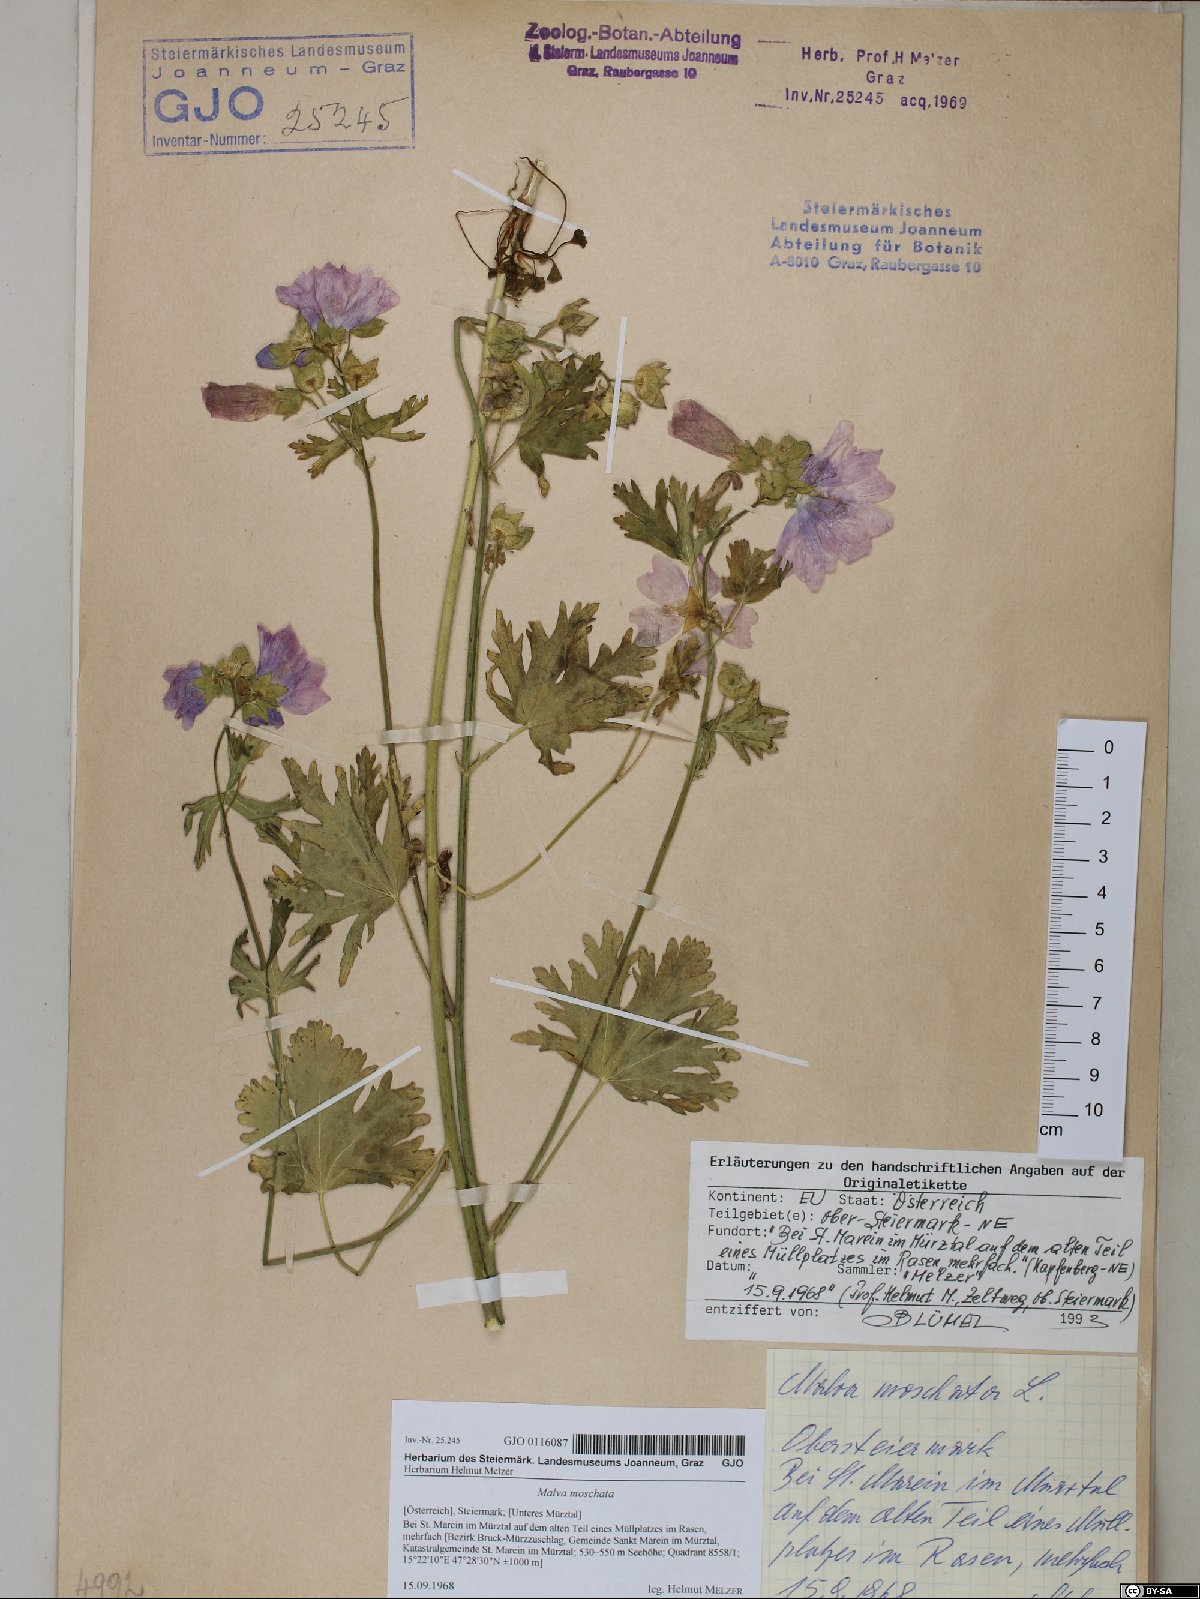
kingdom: Plantae
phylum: Tracheophyta
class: Magnoliopsida
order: Malvales
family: Malvaceae
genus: Malva
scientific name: Malva moschata
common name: Musk mallow
